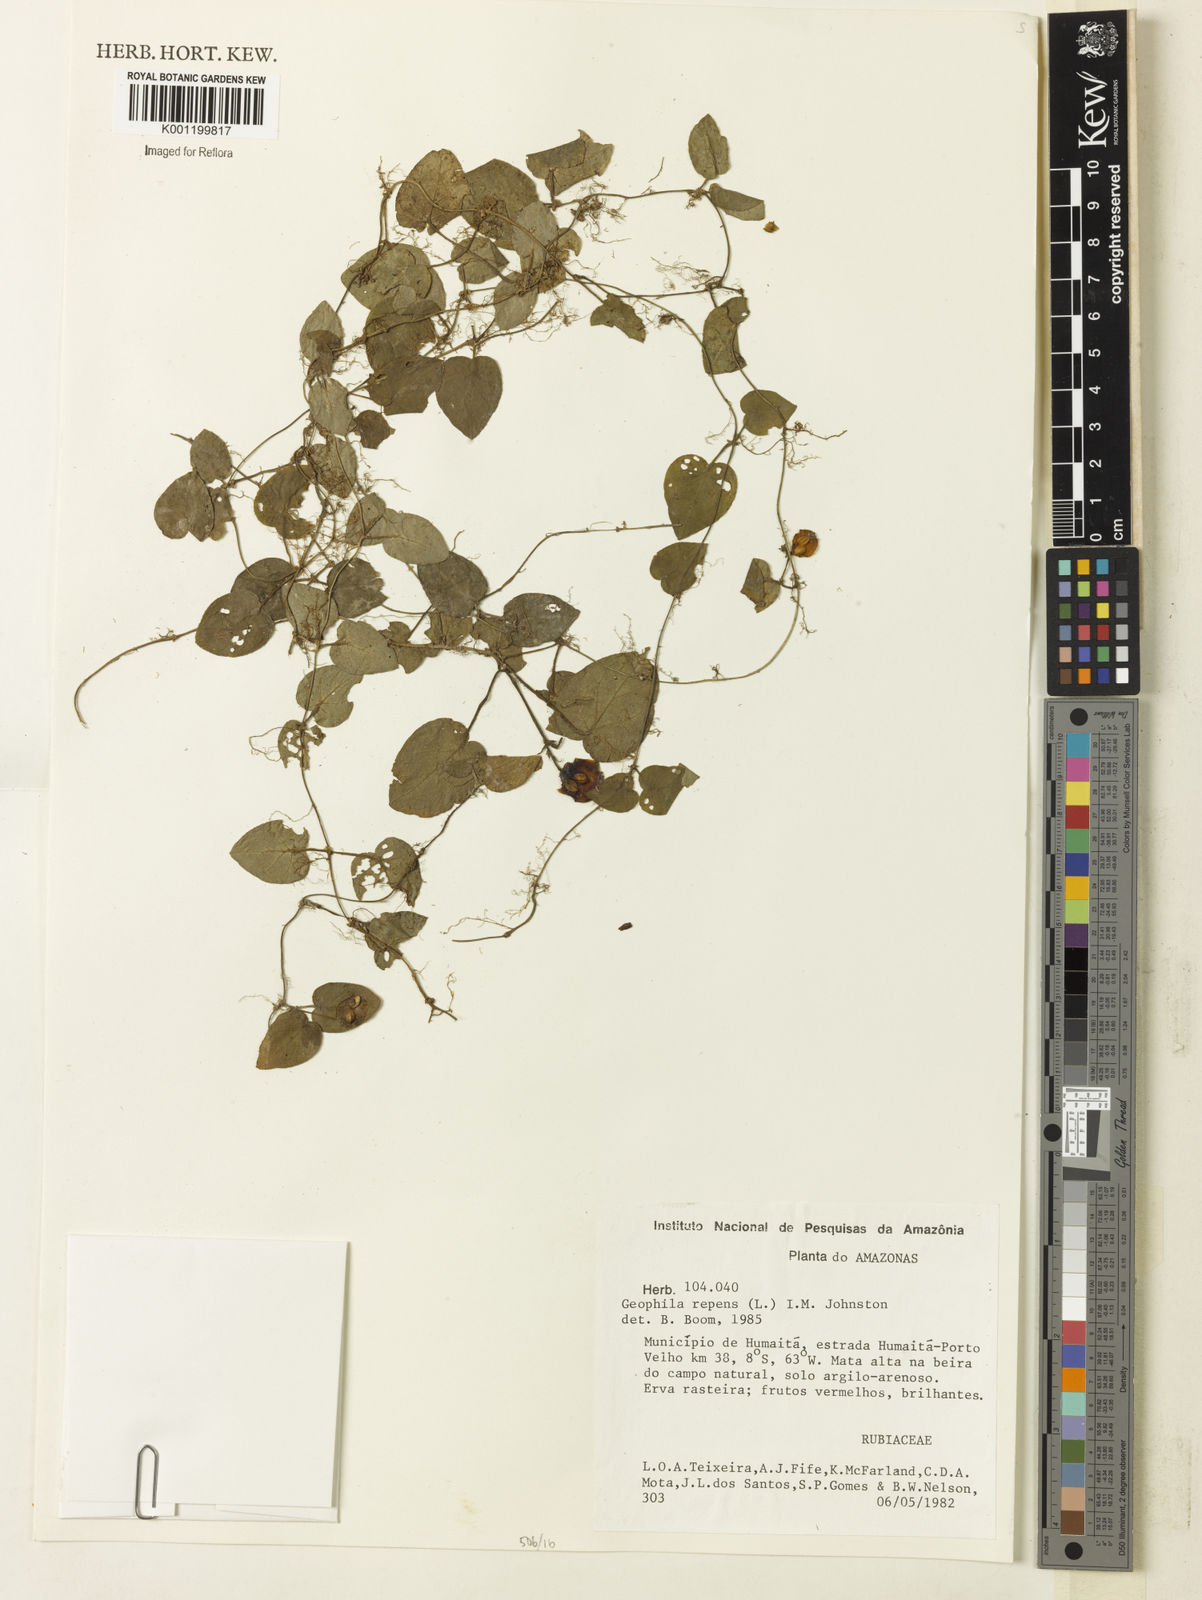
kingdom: Plantae
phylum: Tracheophyta
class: Magnoliopsida
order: Gentianales
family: Rubiaceae
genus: Geophila
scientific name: Geophila repens
